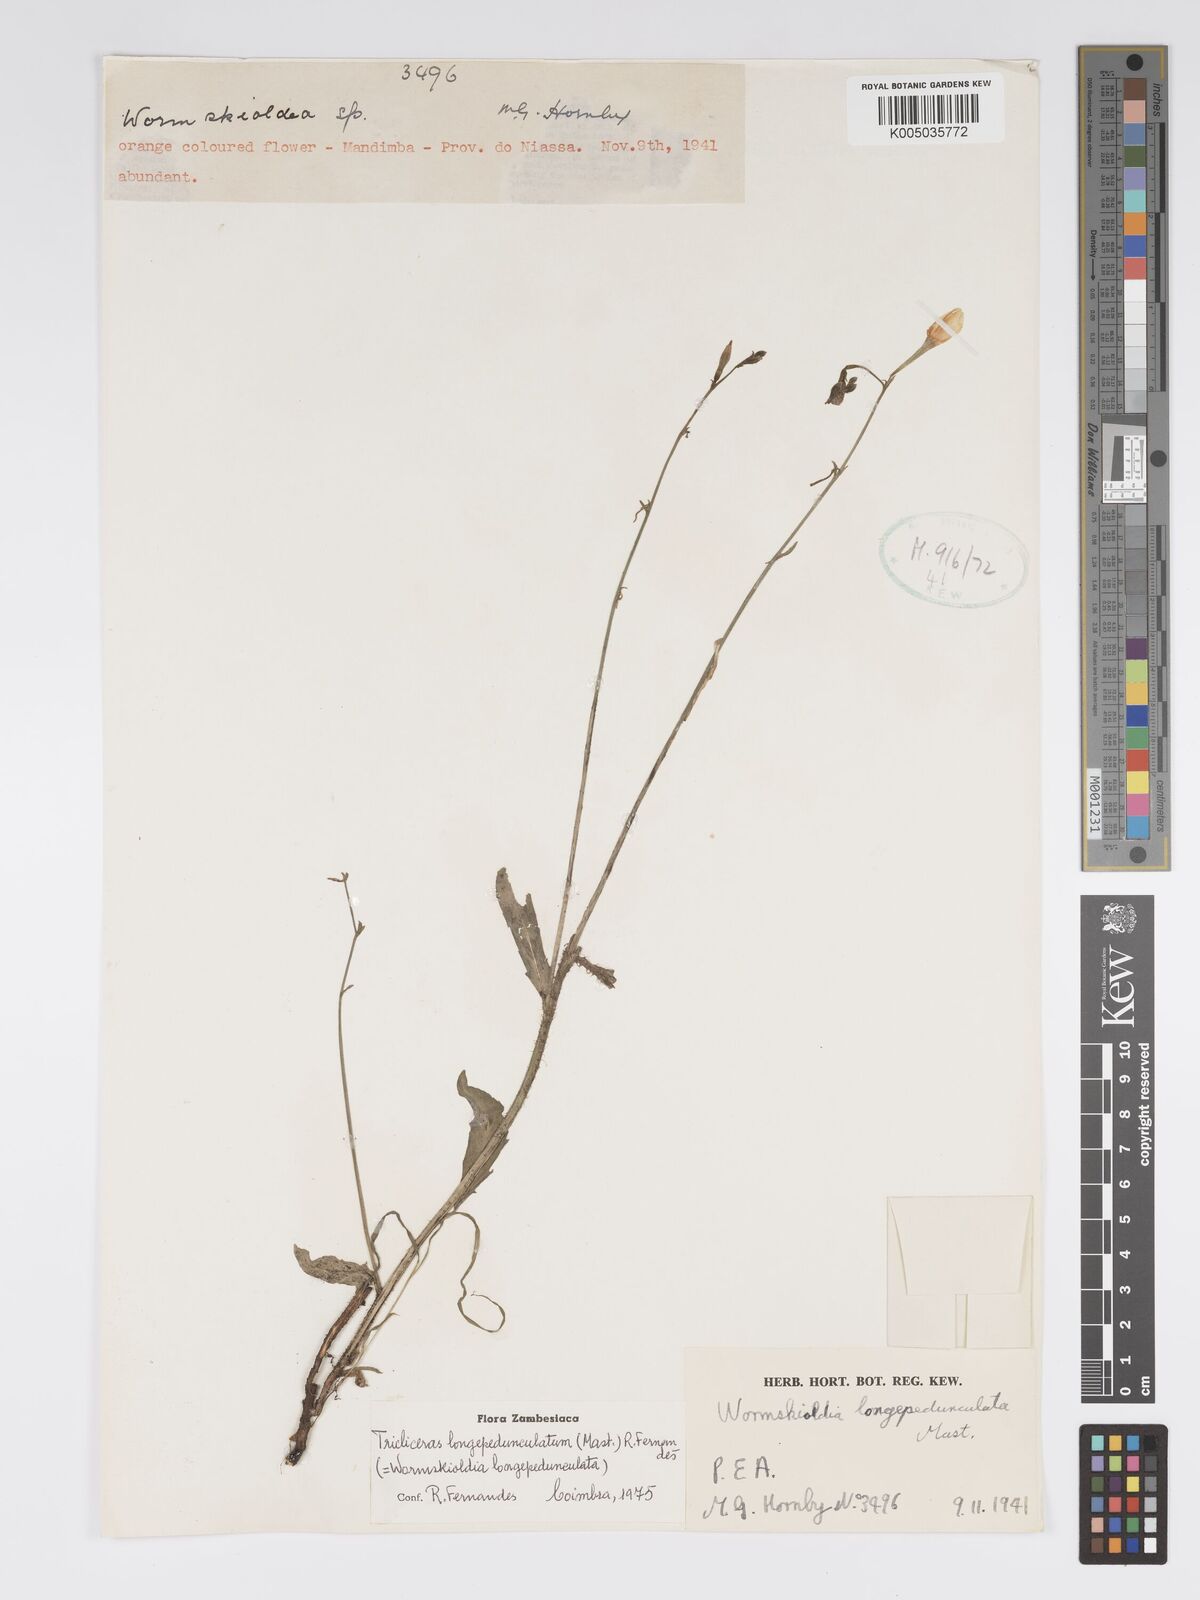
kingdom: Plantae
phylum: Tracheophyta
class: Magnoliopsida
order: Malpighiales
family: Turneraceae
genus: Tricliceras
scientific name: Tricliceras longepedunculatum
